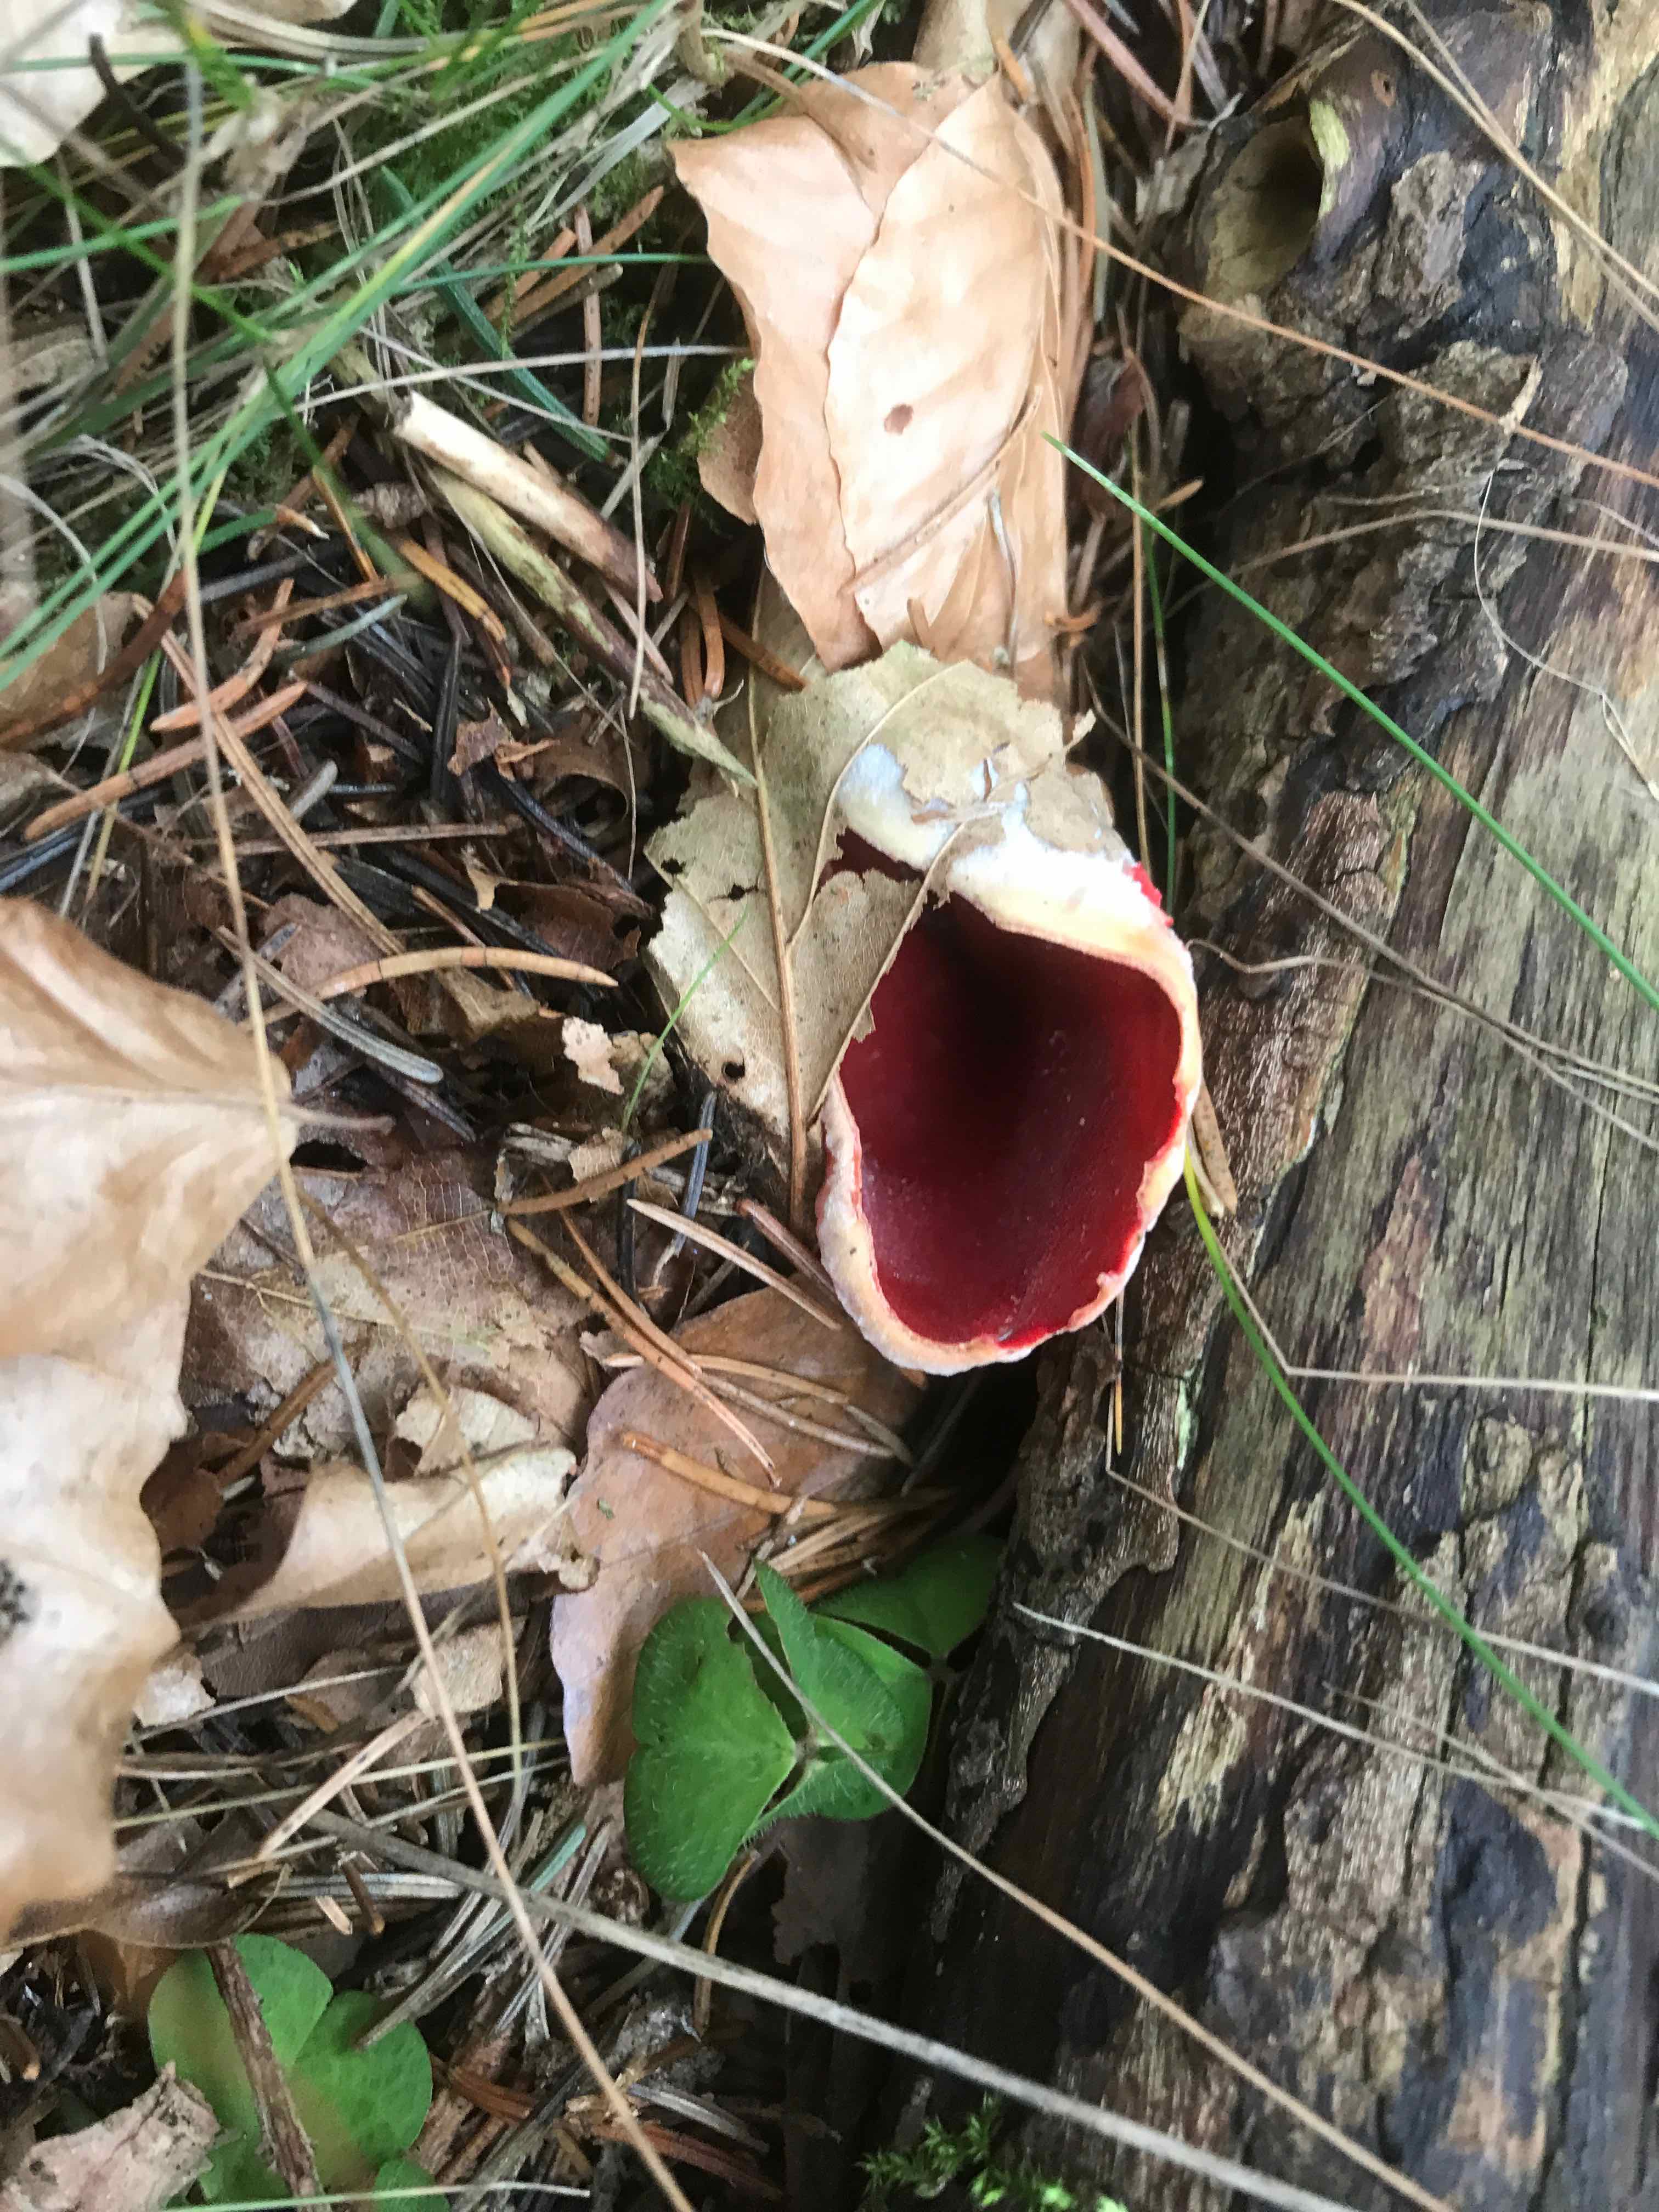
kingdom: Fungi
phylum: Ascomycota
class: Pezizomycetes
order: Pezizales
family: Sarcoscyphaceae
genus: Sarcoscypha
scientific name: Sarcoscypha austriaca
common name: krølhåret pragtbæger
